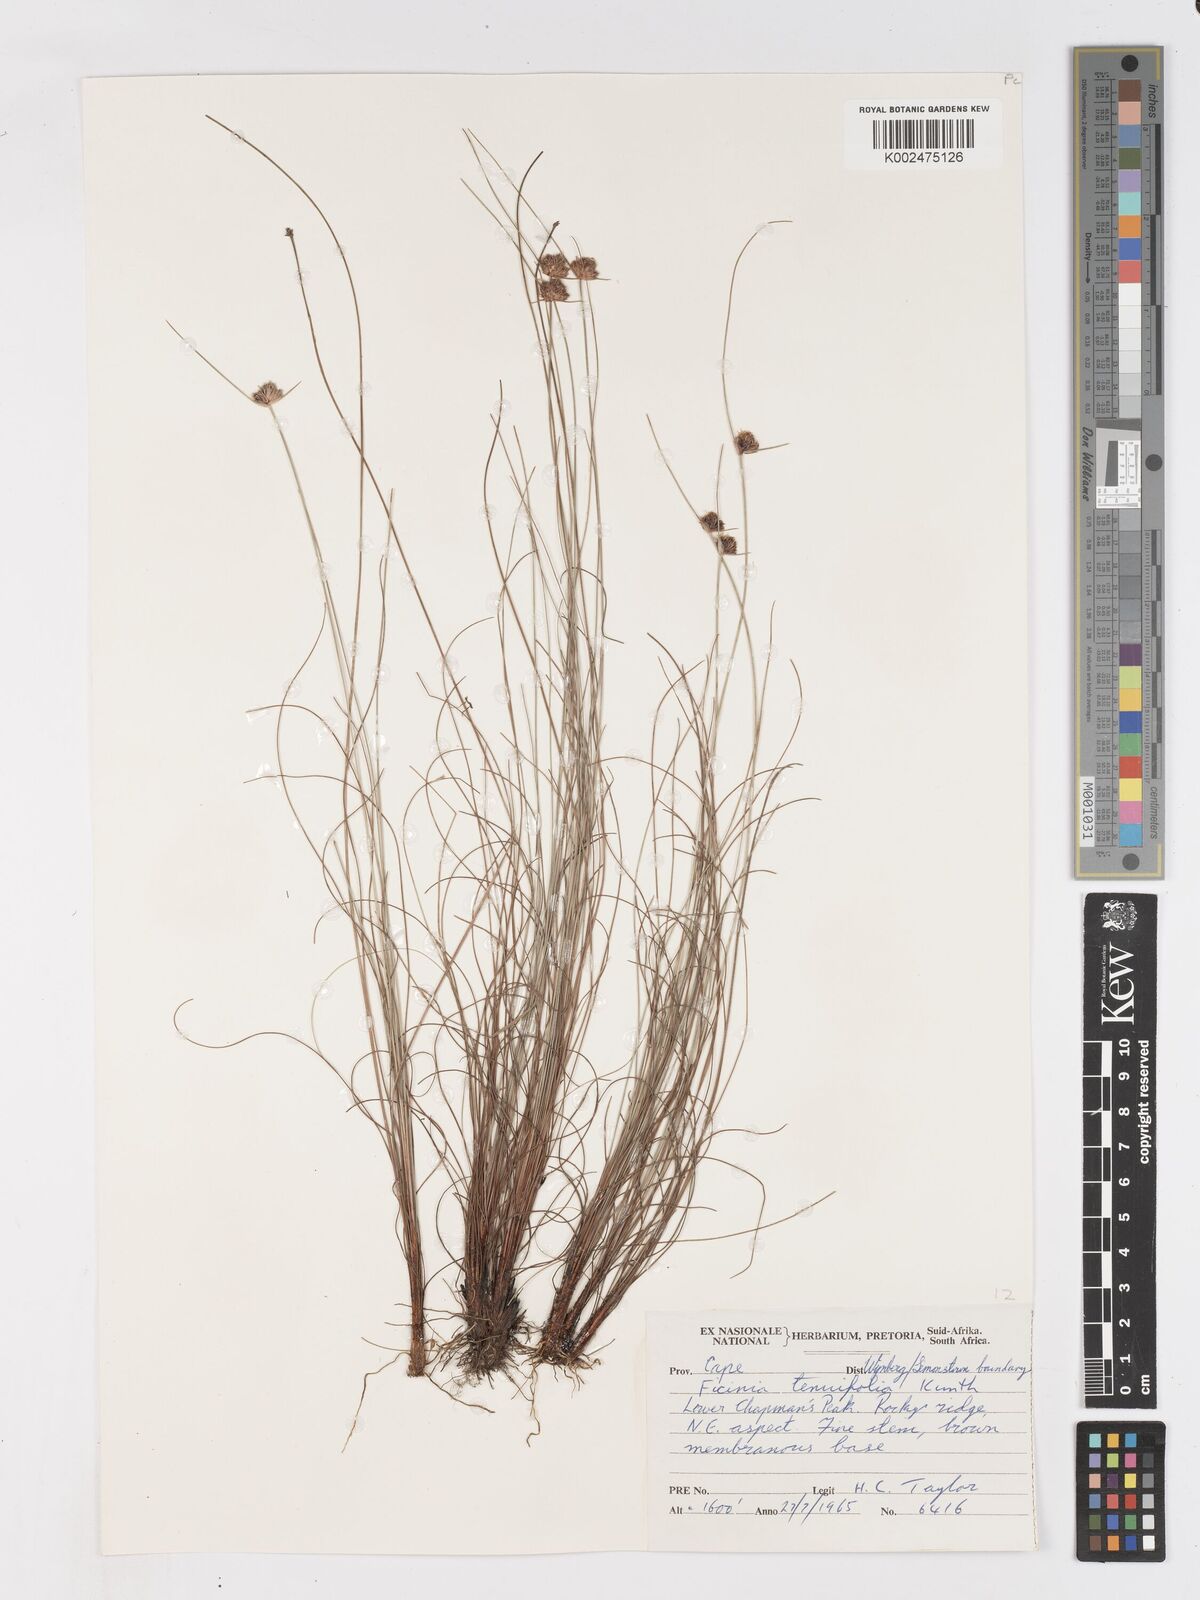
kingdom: Plantae
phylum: Tracheophyta
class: Liliopsida
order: Poales
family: Cyperaceae
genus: Ficinia
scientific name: Ficinia filiformis
